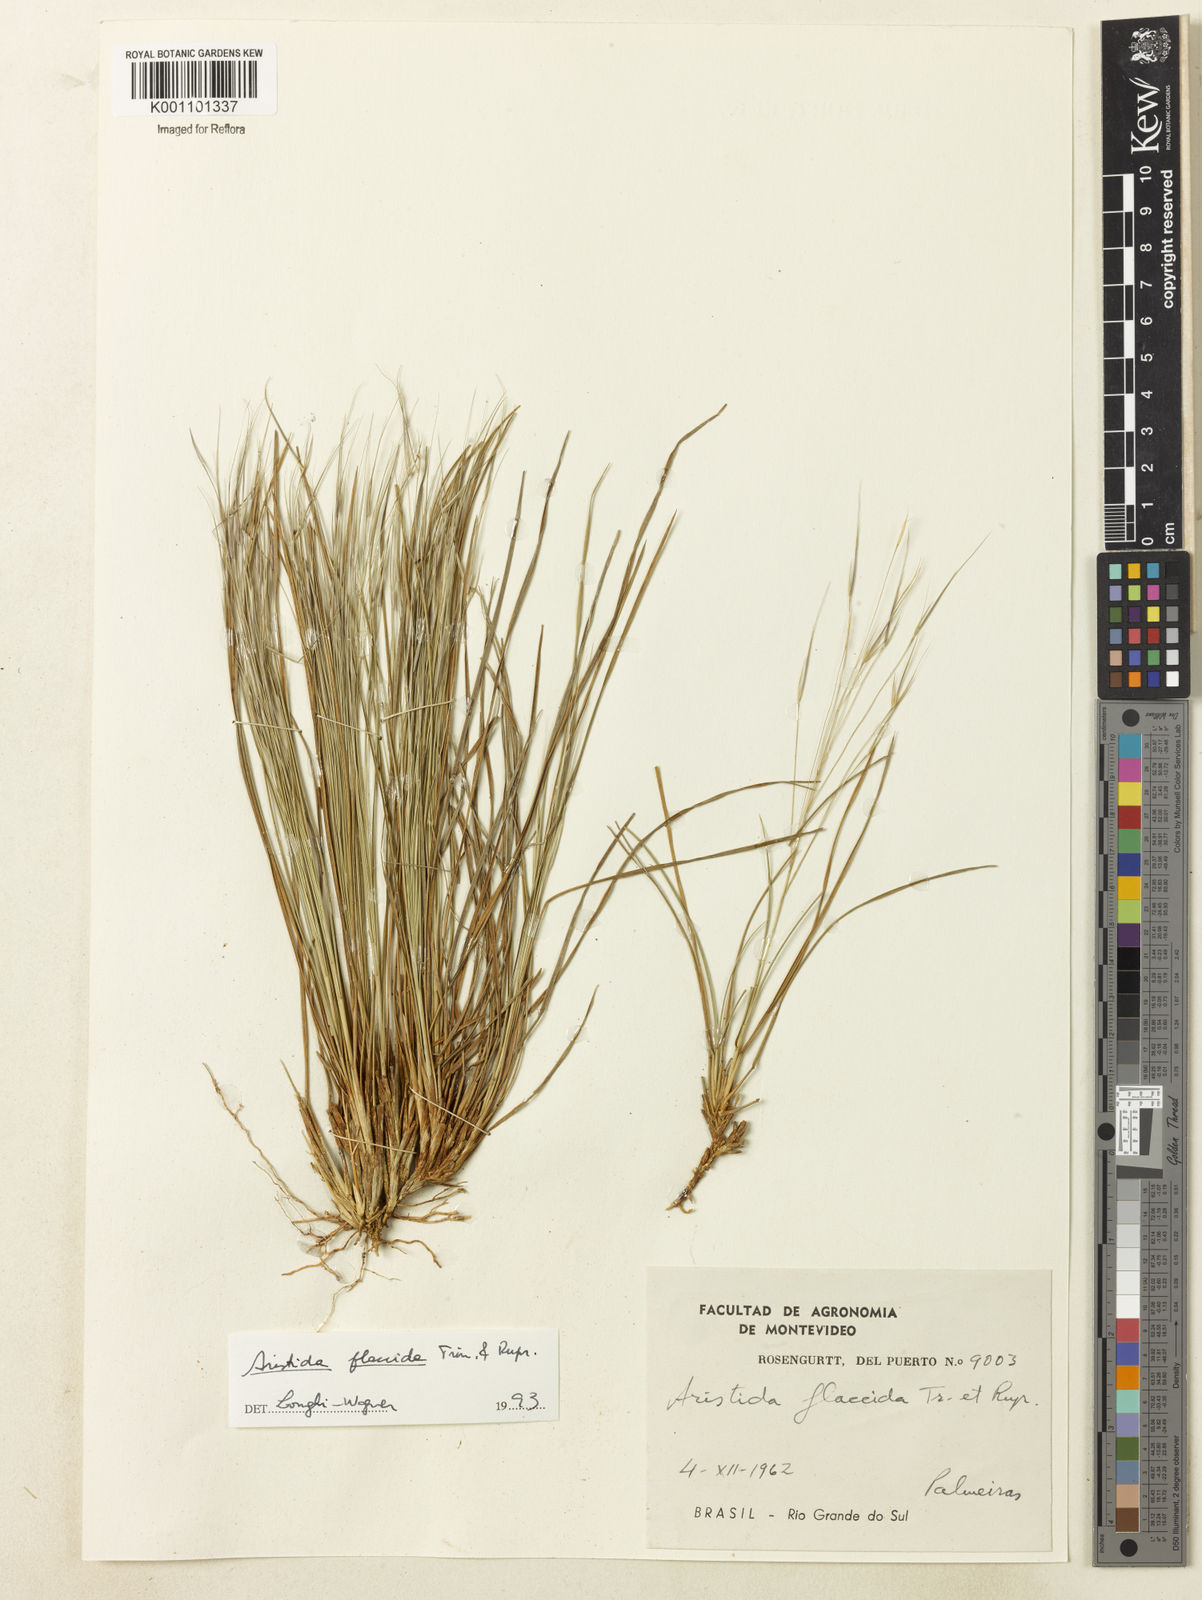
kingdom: Plantae
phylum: Tracheophyta
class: Liliopsida
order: Poales
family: Poaceae
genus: Aristida
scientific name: Aristida flaccida
